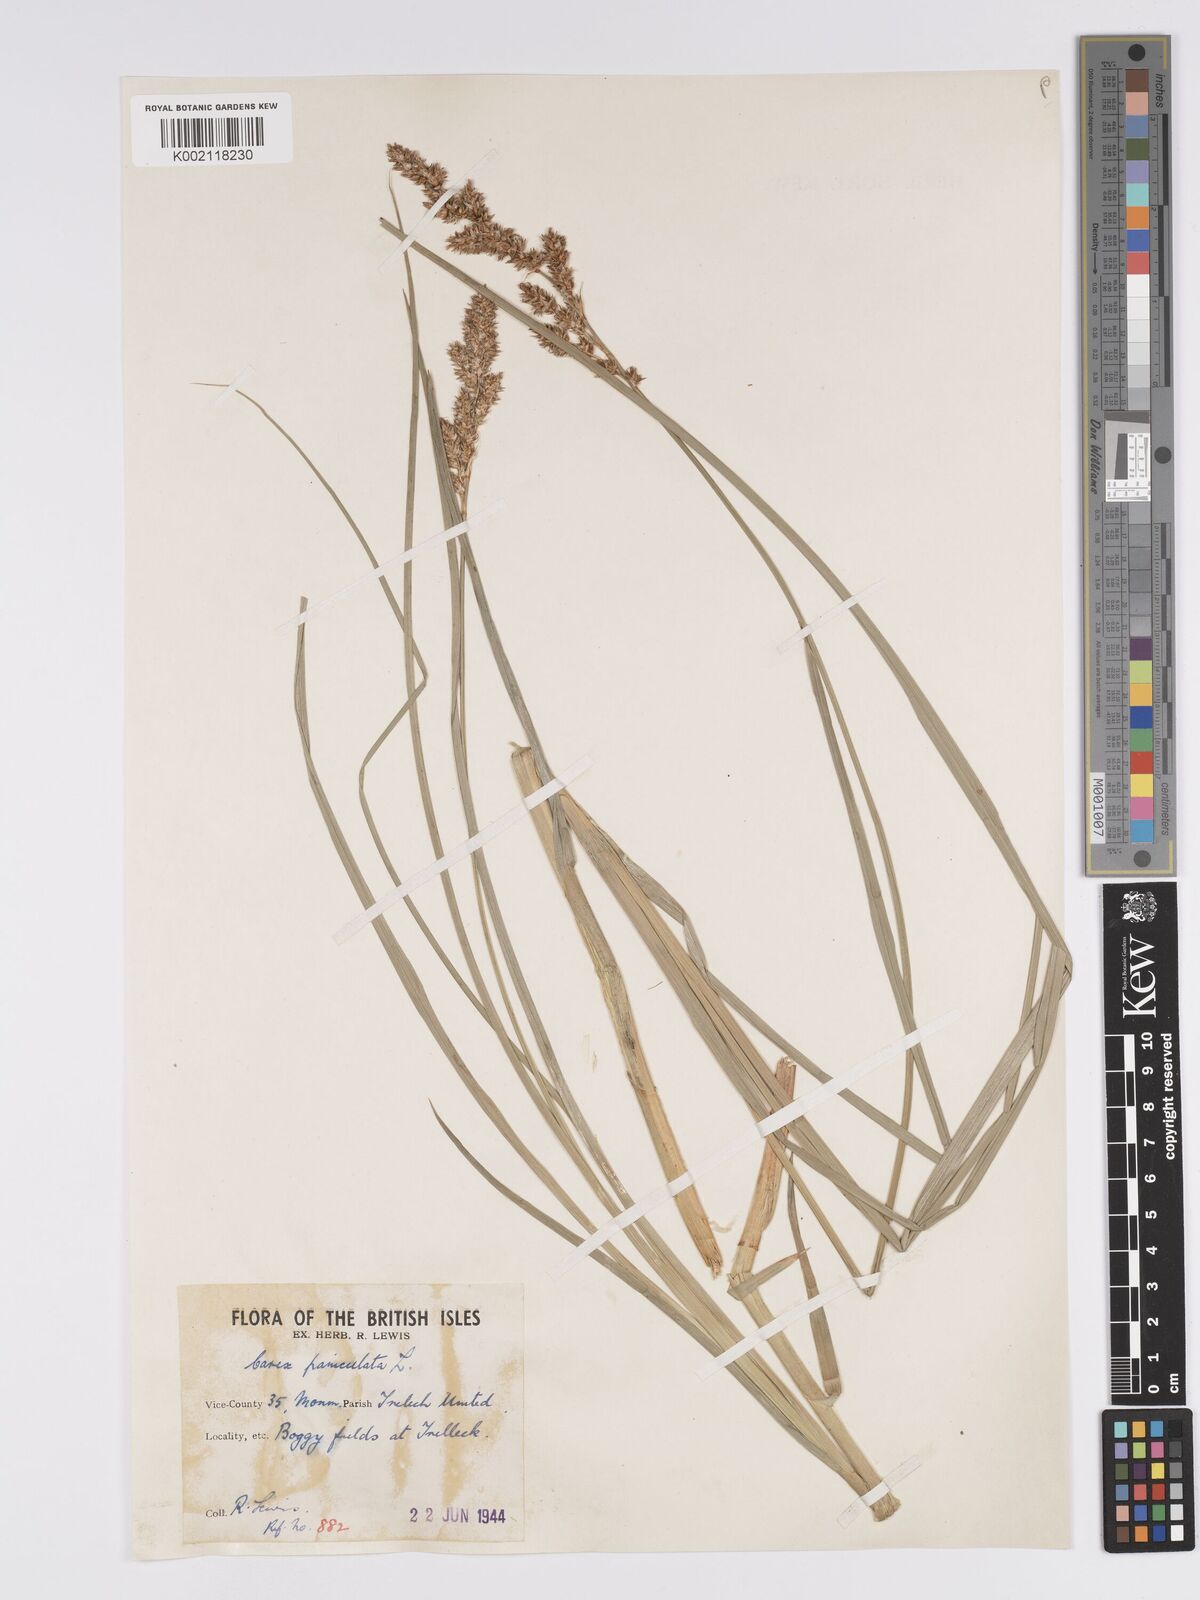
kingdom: Plantae
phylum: Tracheophyta
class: Liliopsida
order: Poales
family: Cyperaceae
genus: Carex
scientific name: Carex paniculata
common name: Greater tussock-sedge
